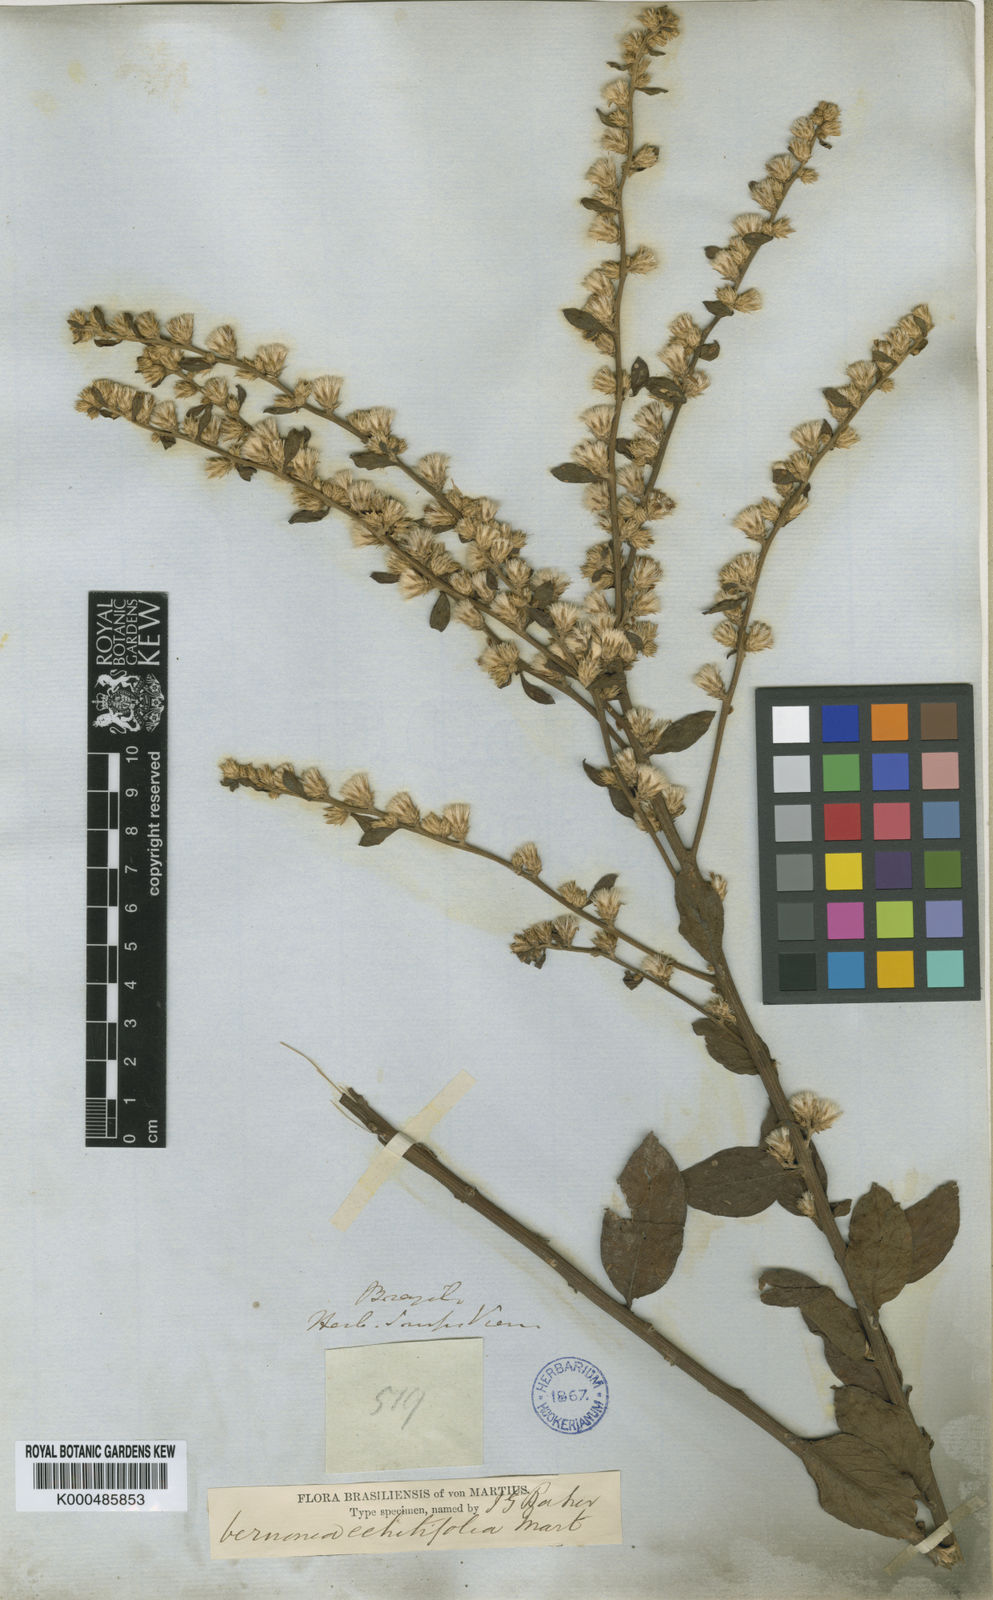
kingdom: Plantae
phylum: Tracheophyta
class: Magnoliopsida
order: Asterales
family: Asteraceae
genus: Acilepidopsis
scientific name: Acilepidopsis echitifolia
